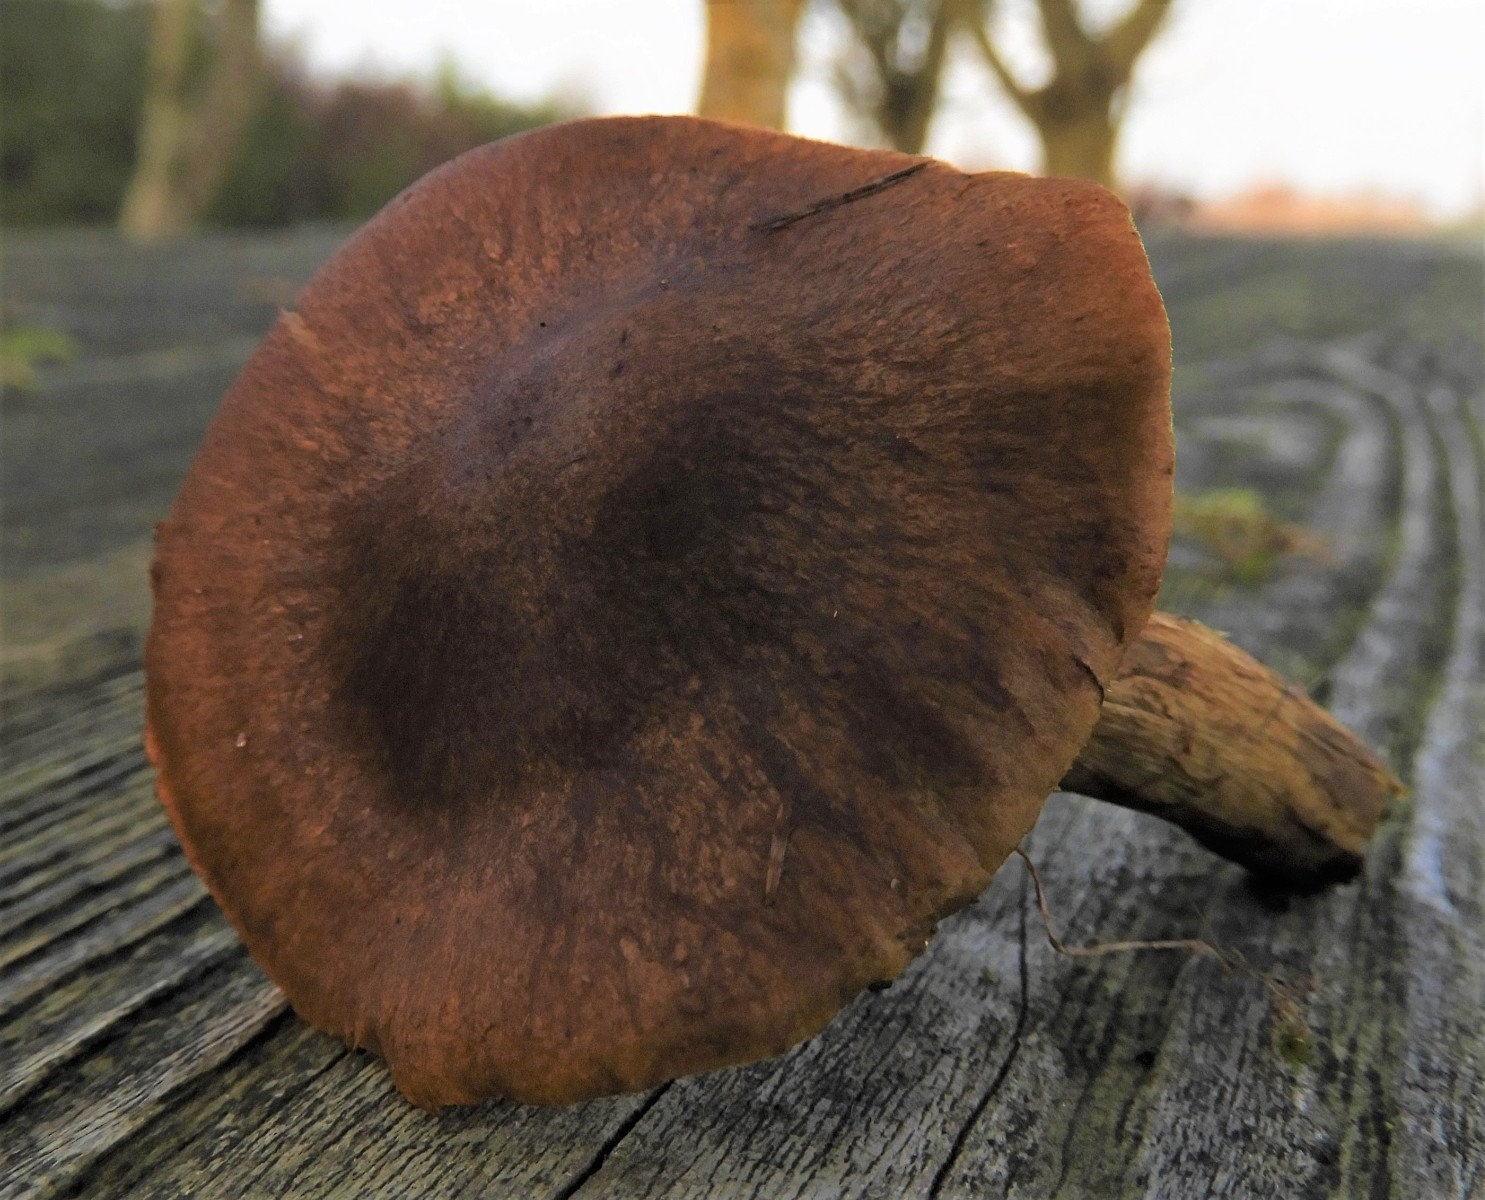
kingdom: Fungi
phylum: Basidiomycota
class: Agaricomycetes
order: Agaricales
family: Cortinariaceae
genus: Cortinarius
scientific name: Cortinarius
